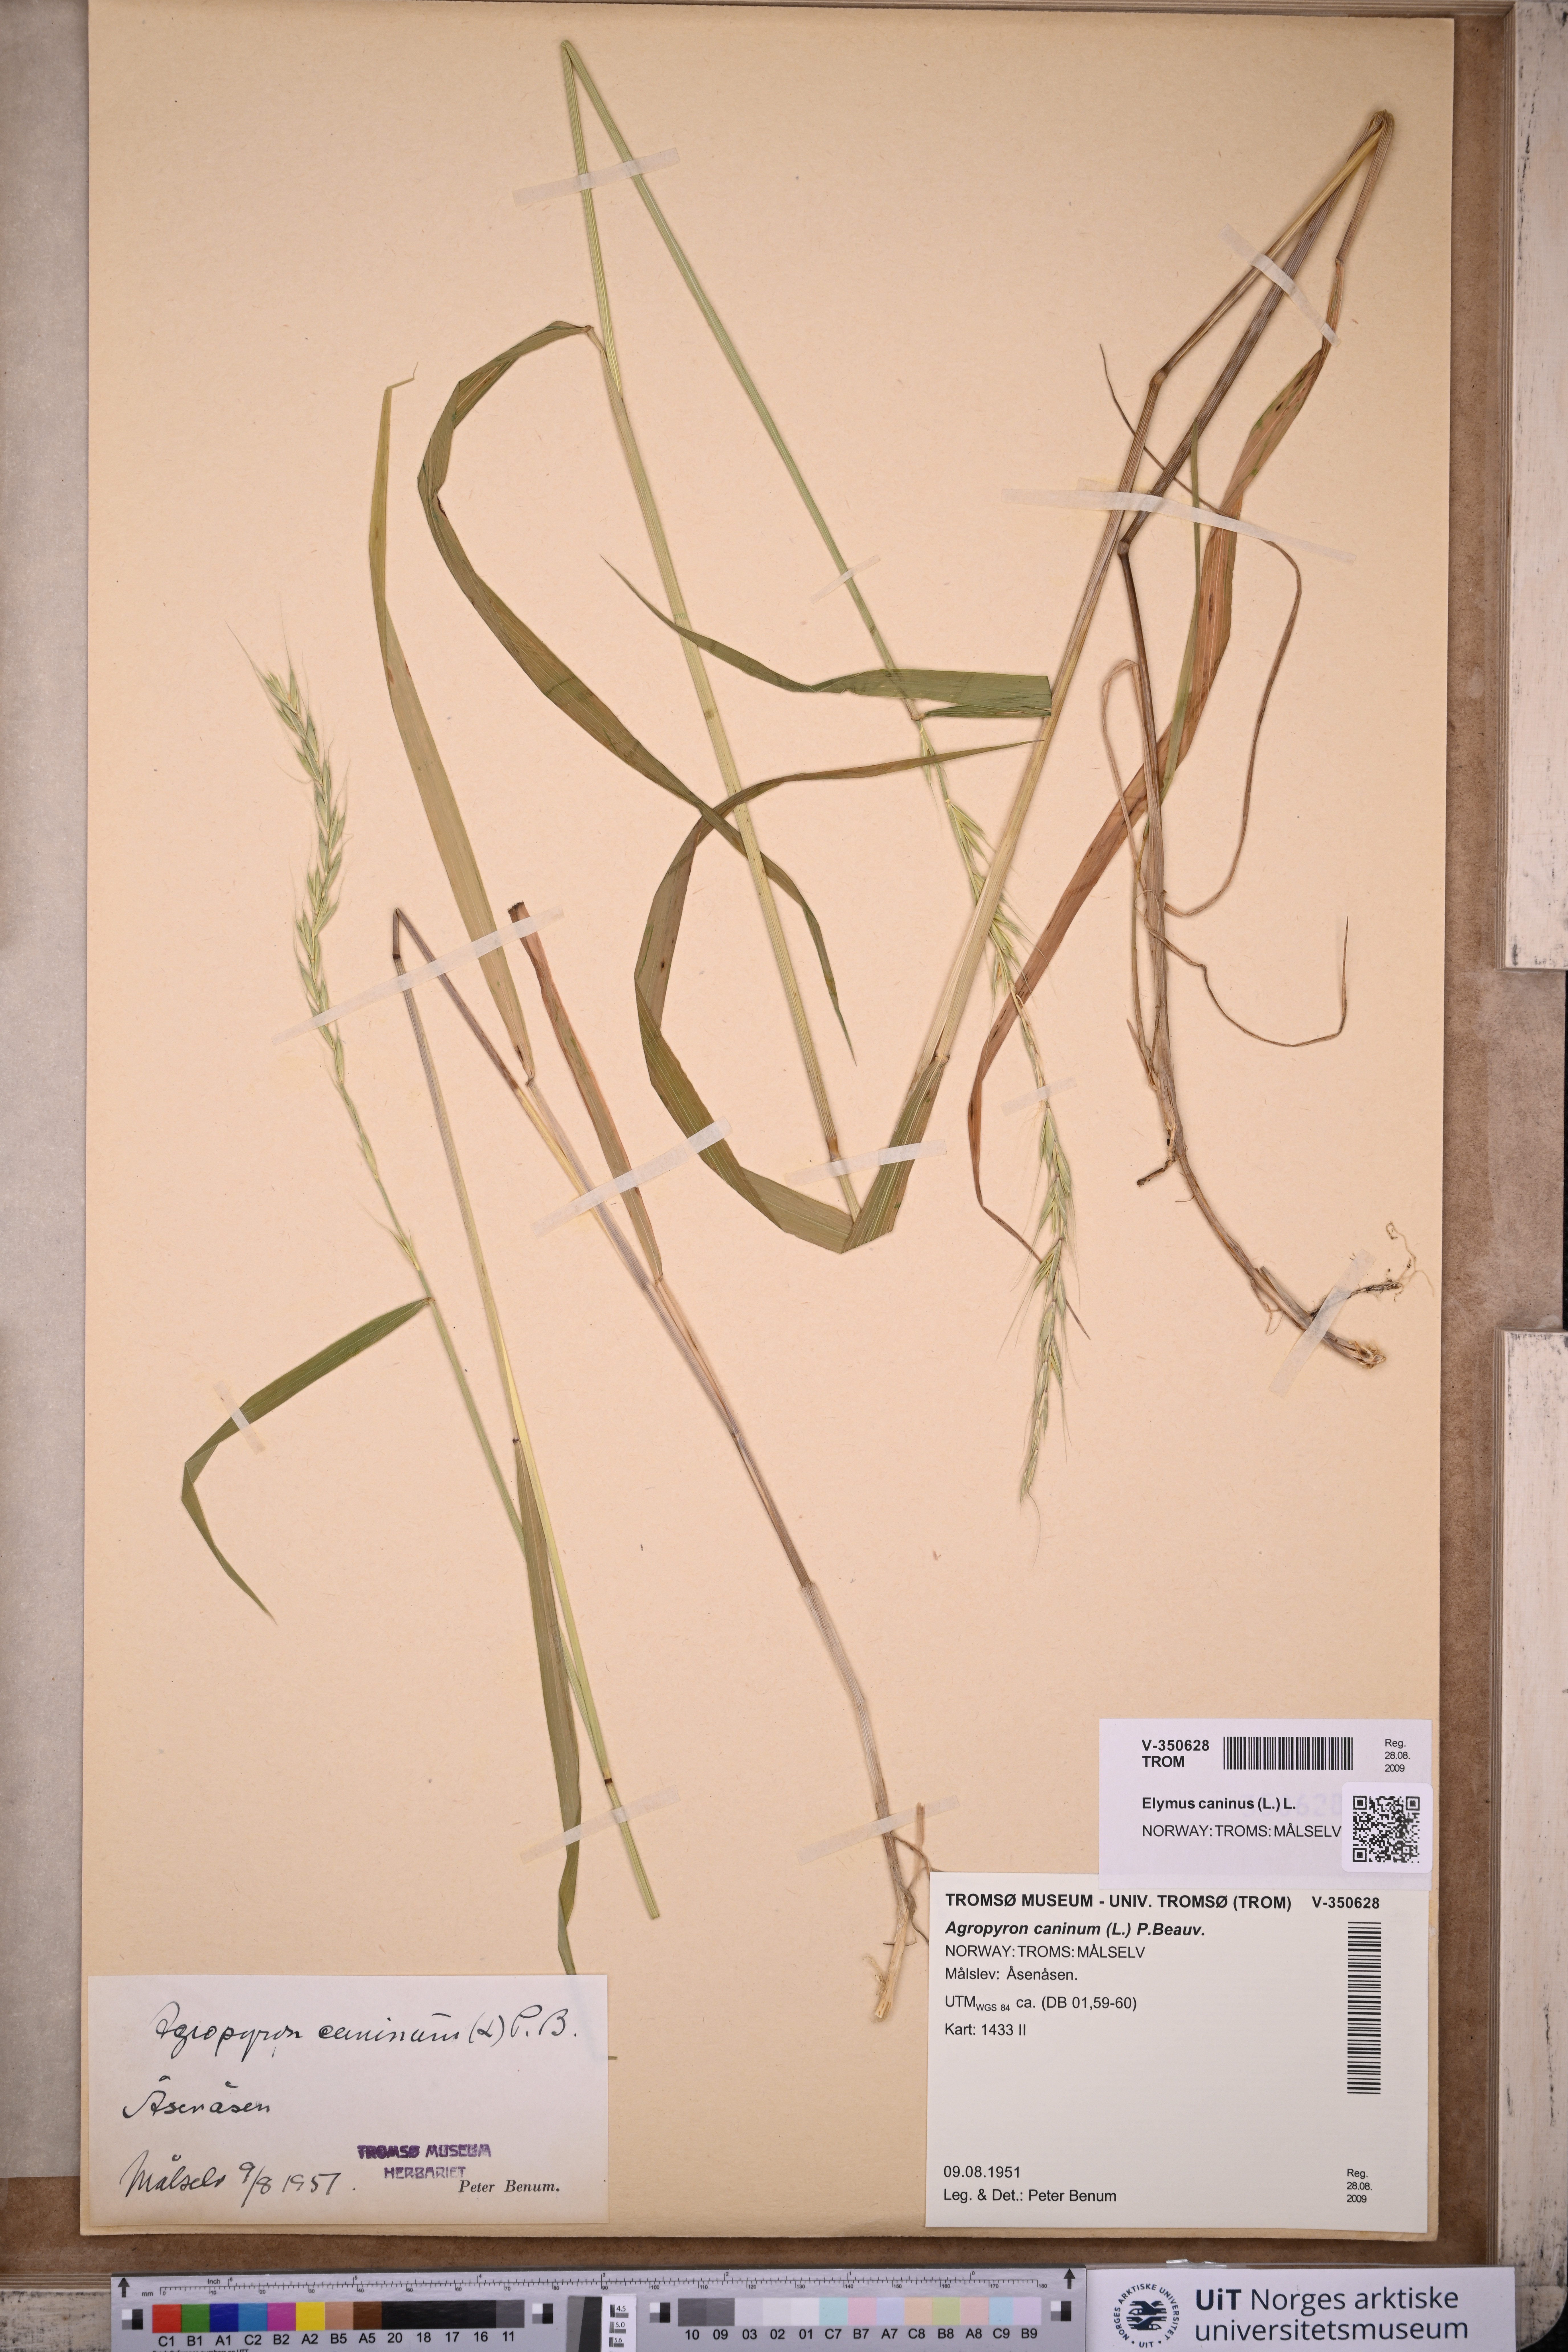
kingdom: Plantae
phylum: Tracheophyta
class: Liliopsida
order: Poales
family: Poaceae
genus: Elymus
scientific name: Elymus caninus
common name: Bearded couch
